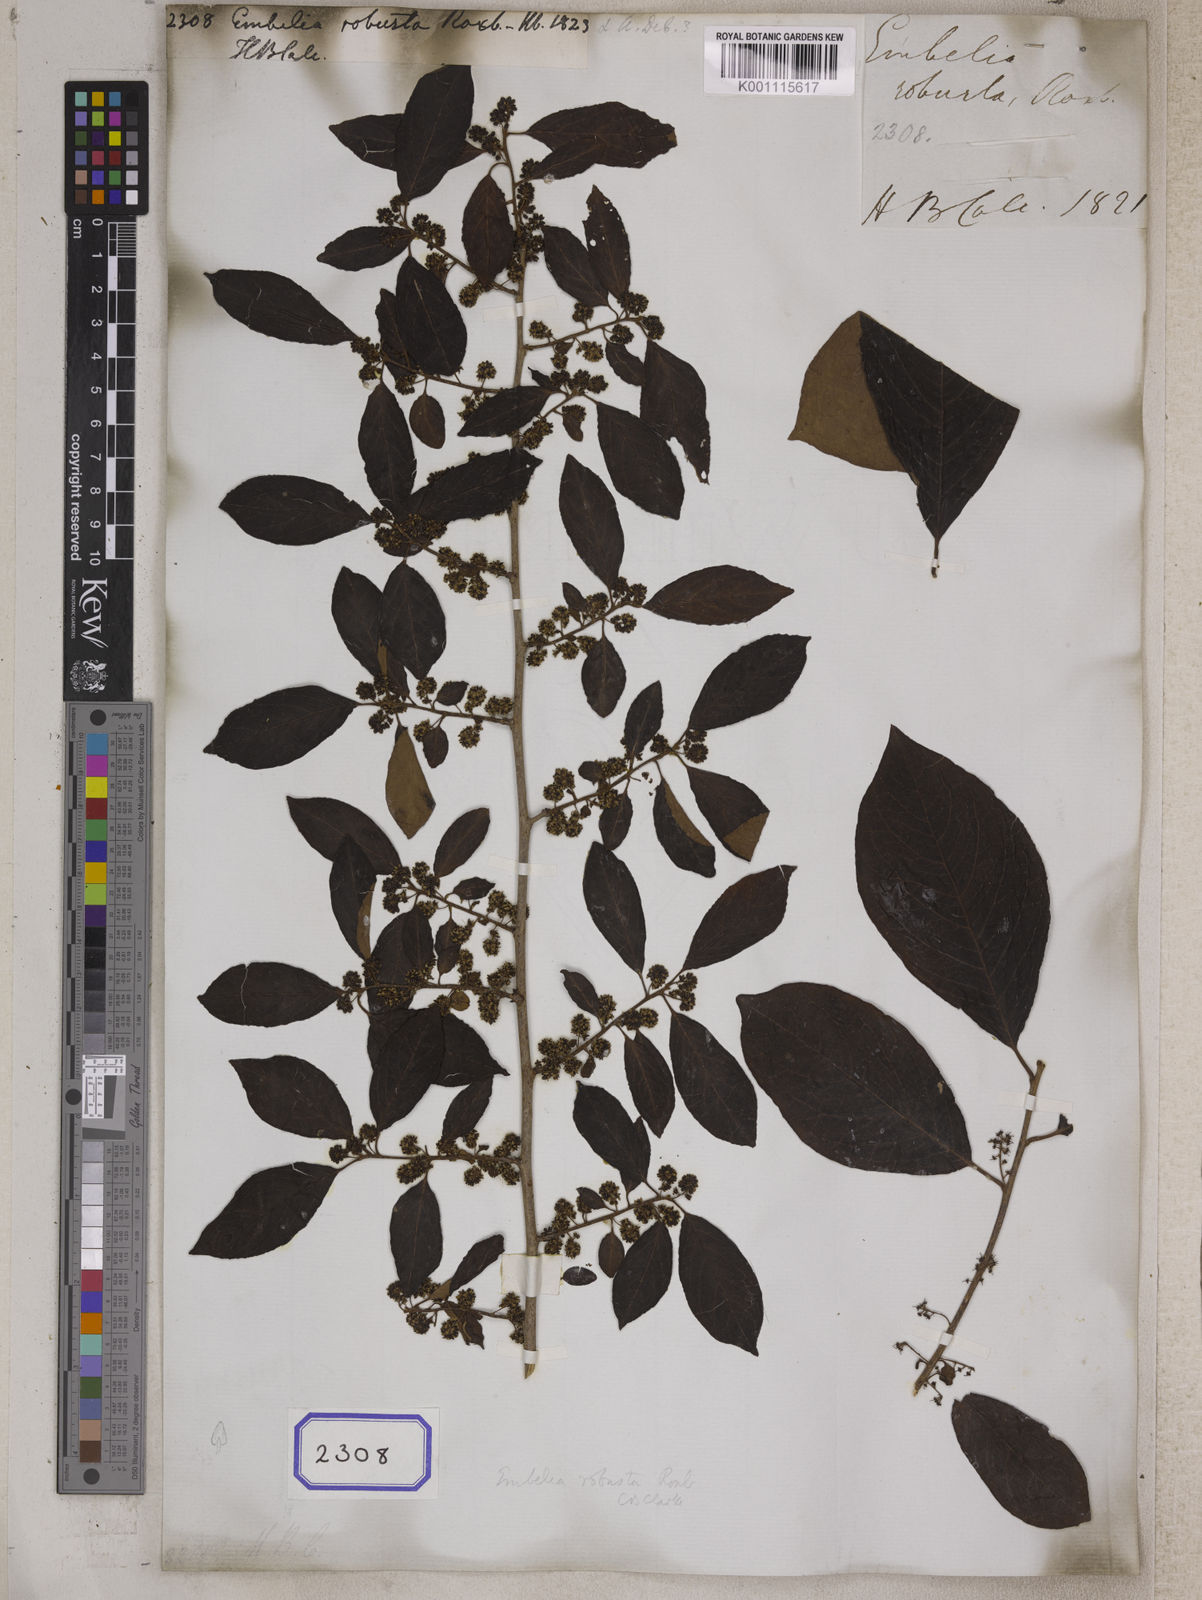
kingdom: Plantae
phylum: Tracheophyta
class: Magnoliopsida
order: Ericales
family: Primulaceae
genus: Embelia
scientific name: Embelia tsjeriam-cottam
